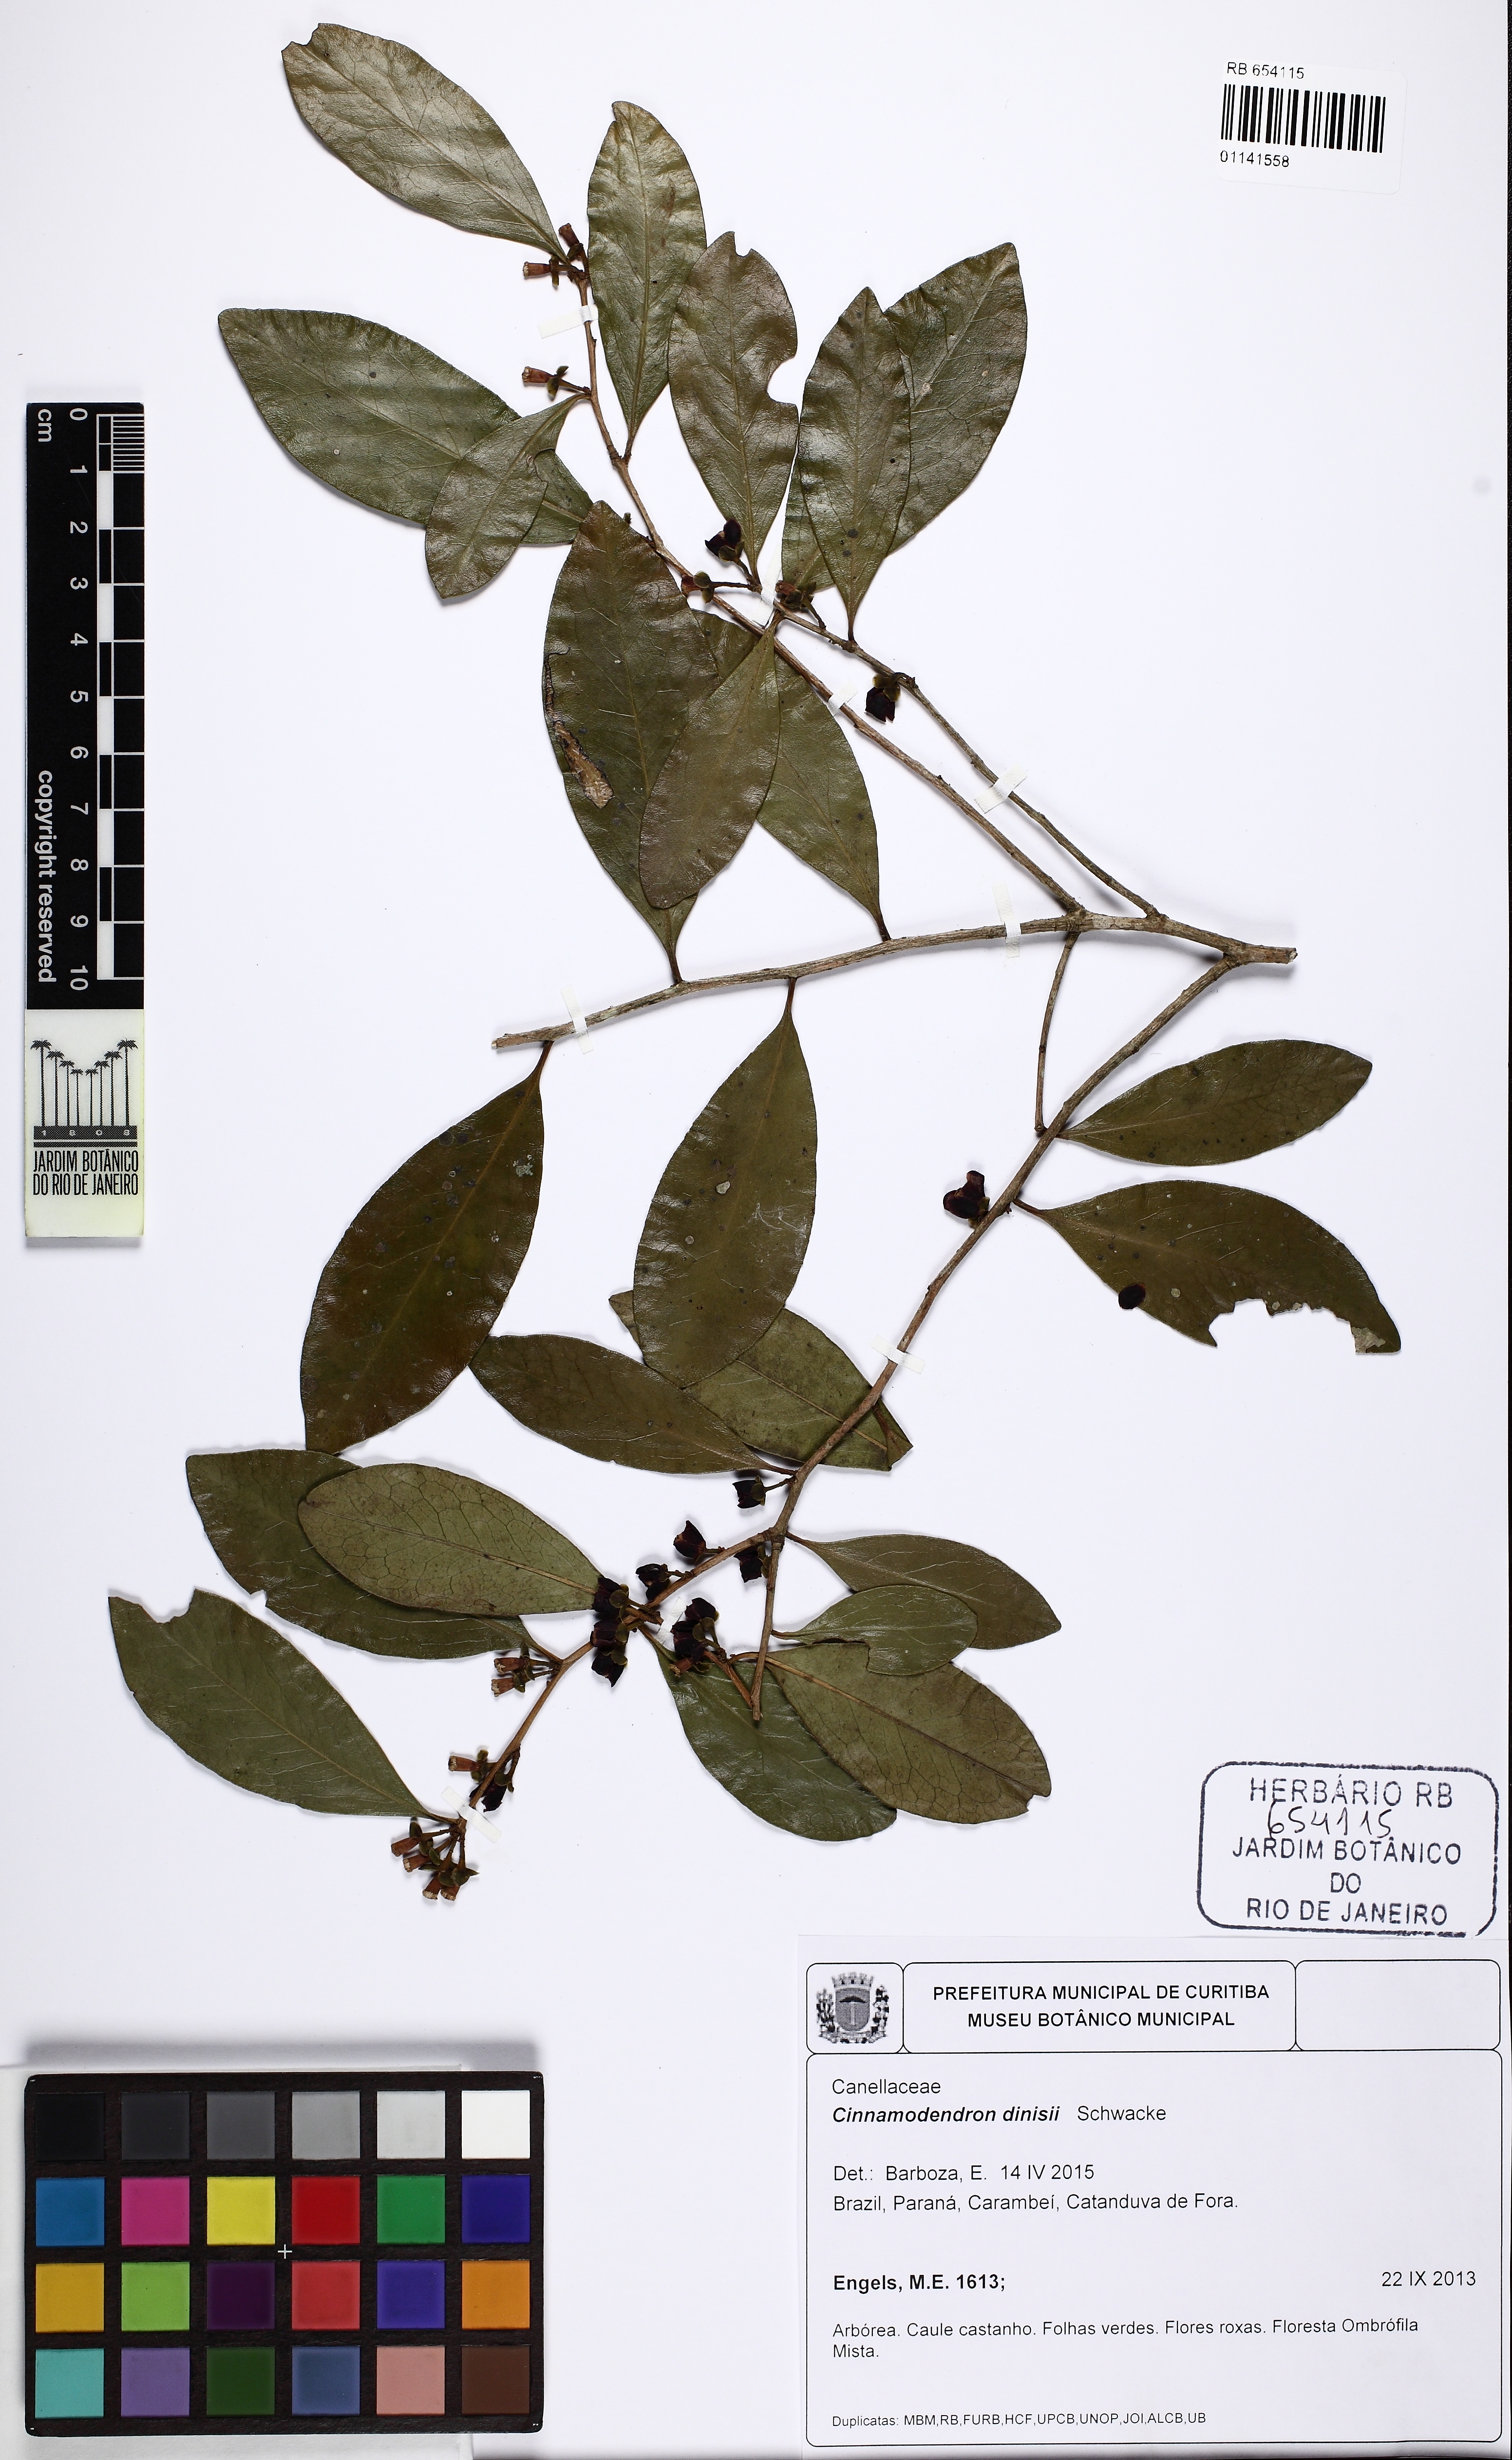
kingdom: Plantae
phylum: Tracheophyta
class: Magnoliopsida
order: Canellales
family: Canellaceae
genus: Cinnamodendron
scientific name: Cinnamodendron dinisii
